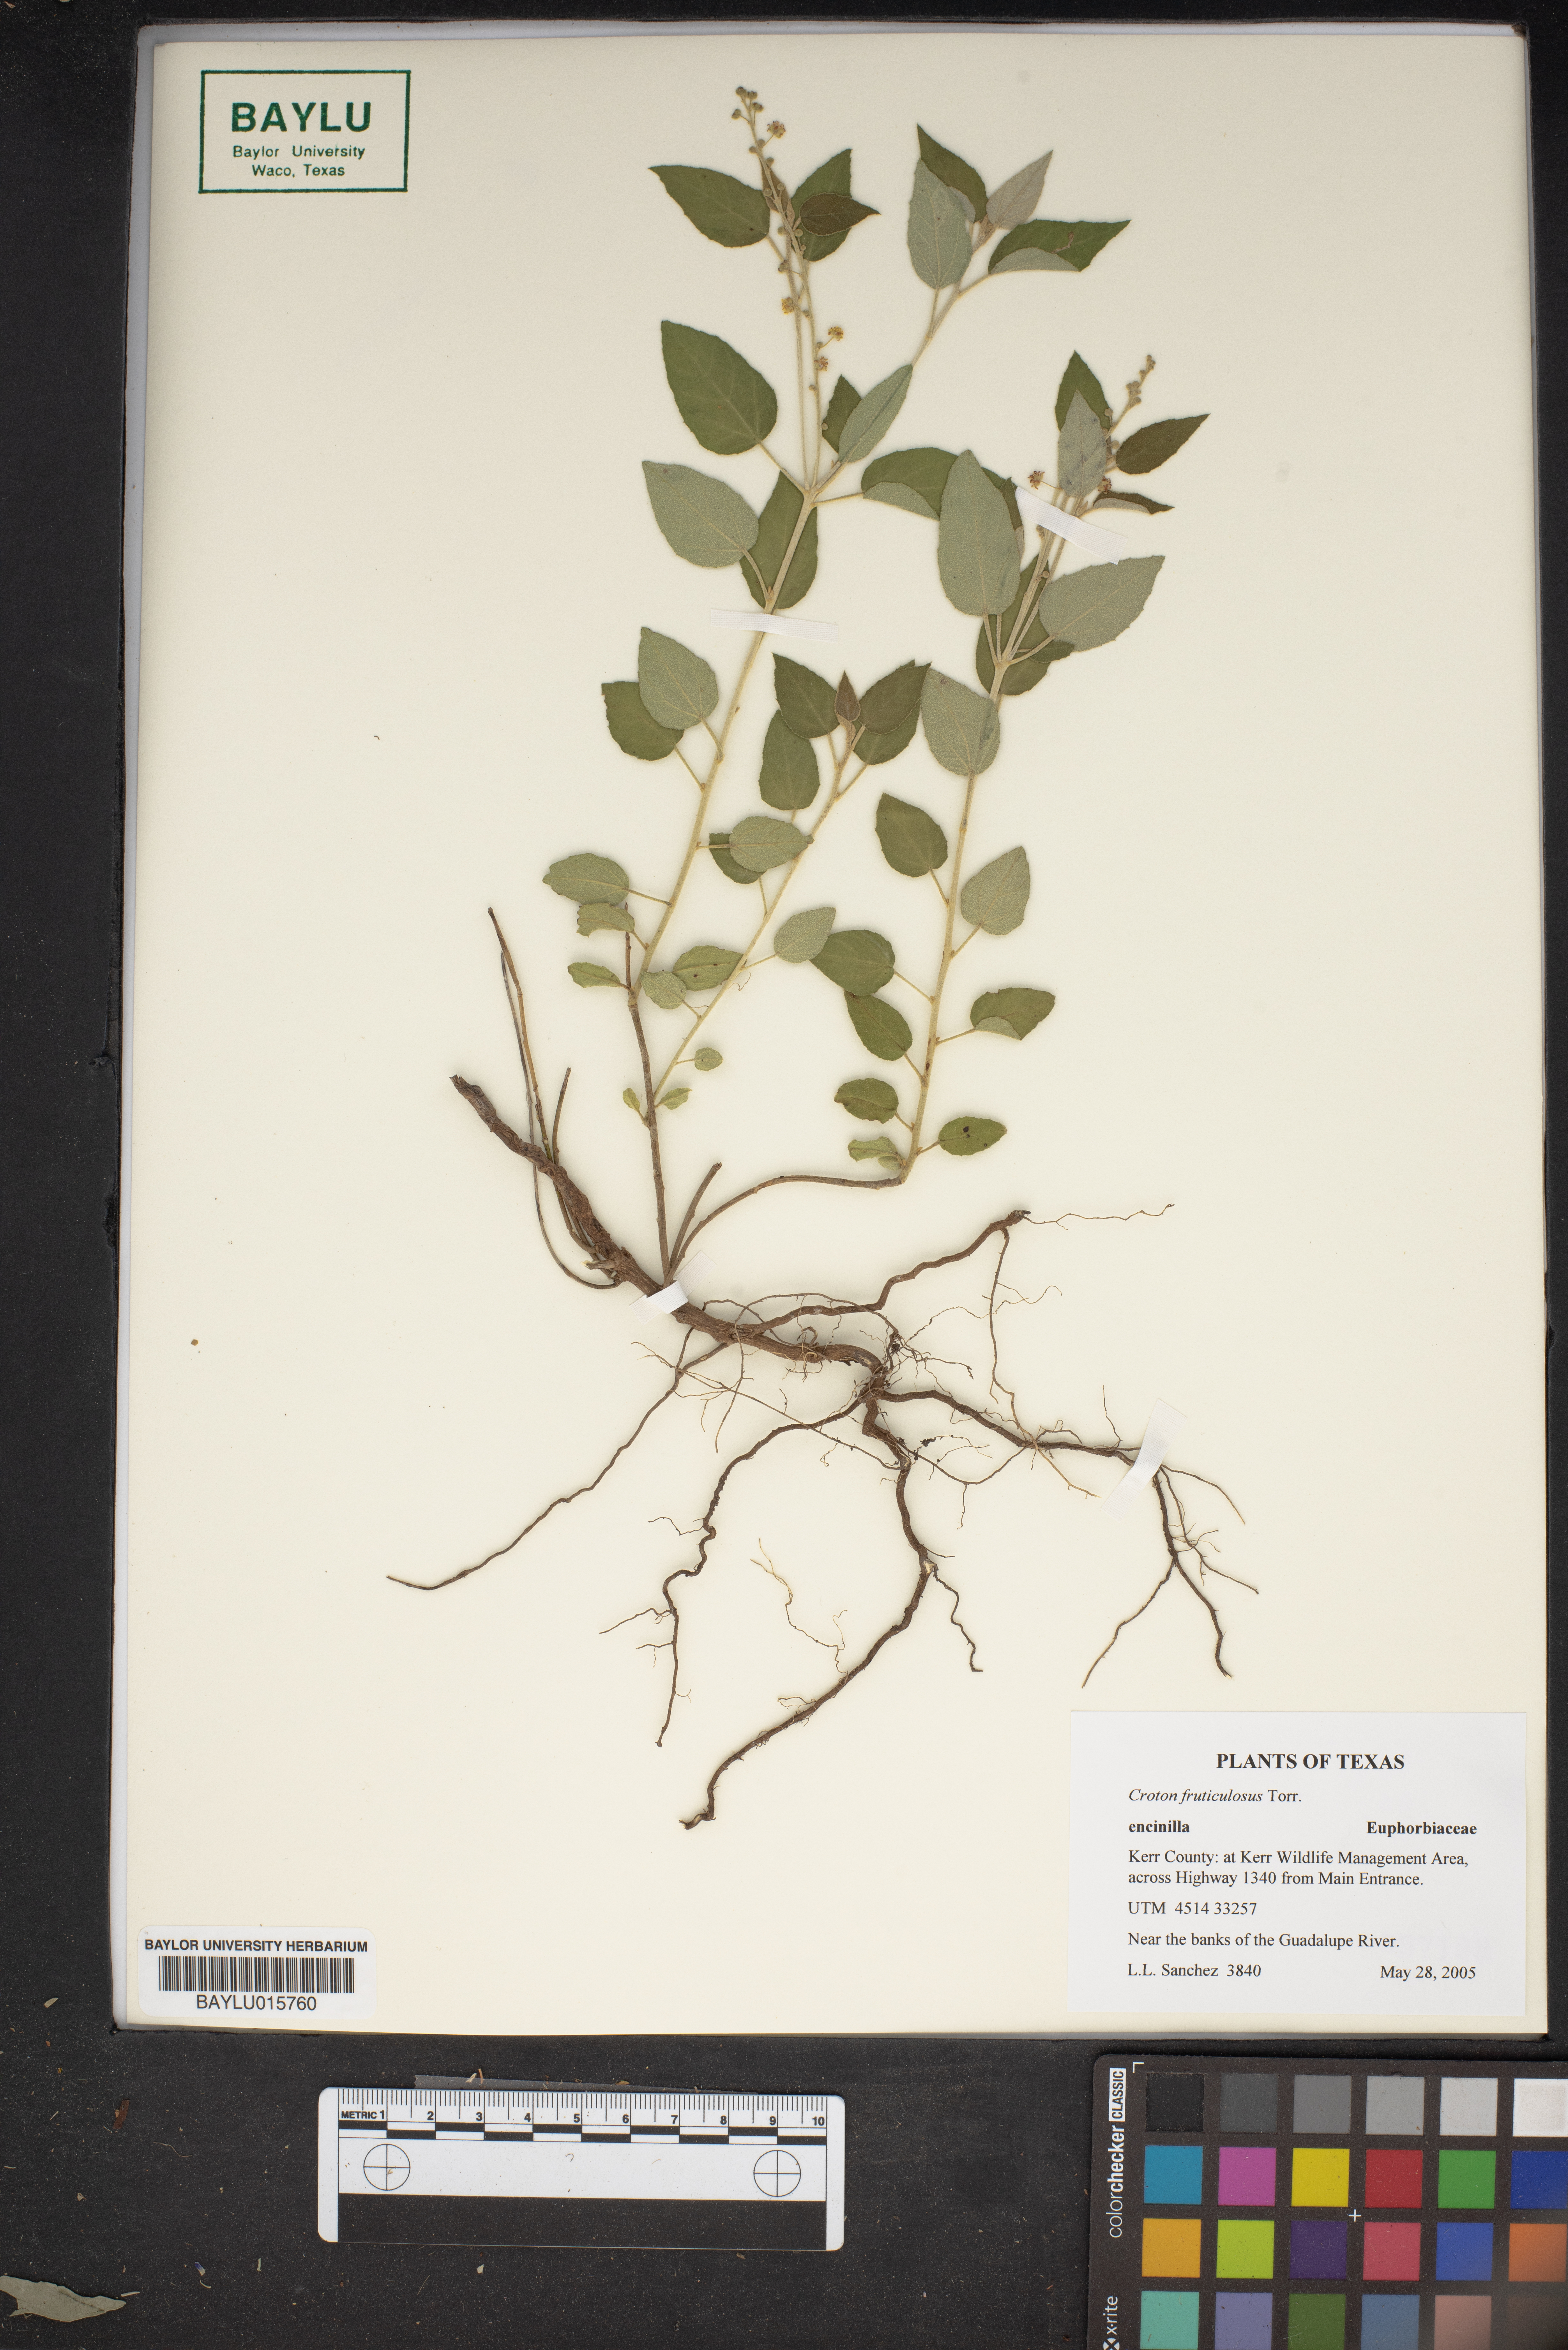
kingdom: Plantae
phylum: Tracheophyta
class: Magnoliopsida
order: Malpighiales
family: Euphorbiaceae
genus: Croton
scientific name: Croton fruticulosus
